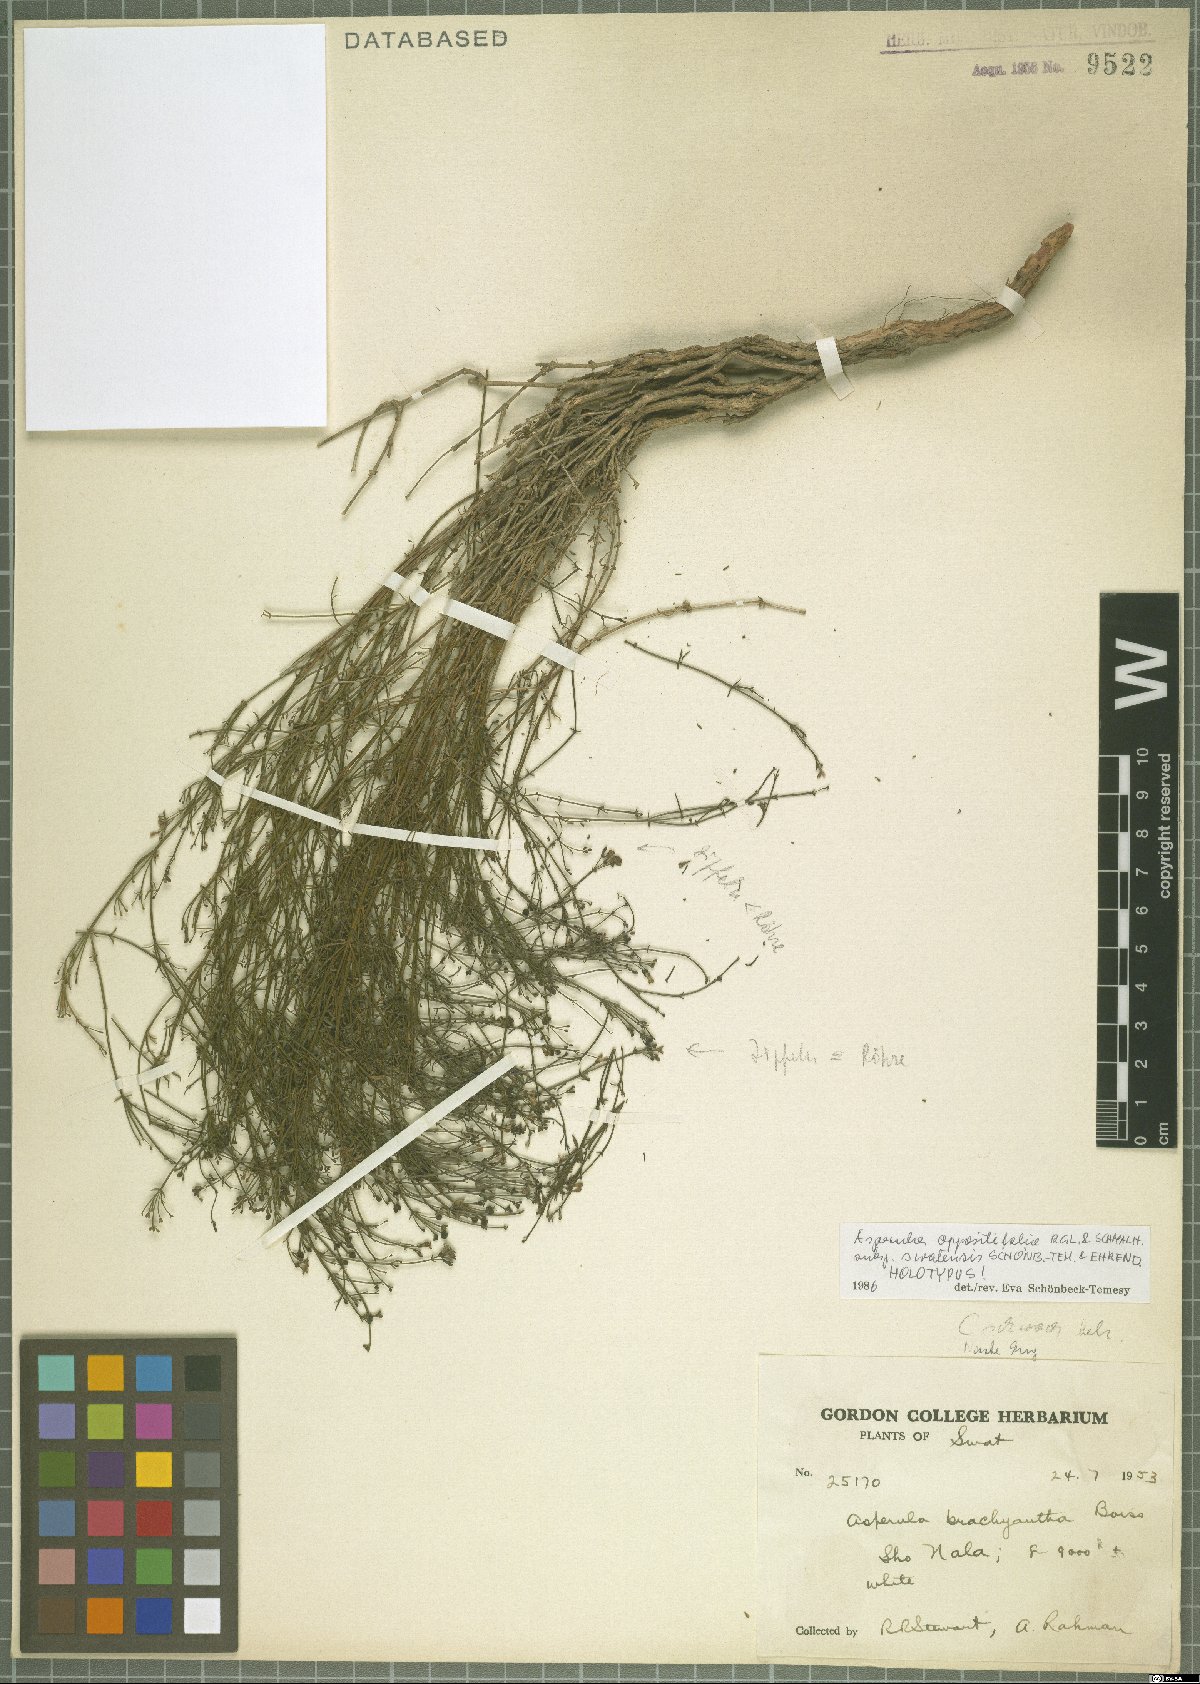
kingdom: Plantae
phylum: Tracheophyta
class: Magnoliopsida
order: Gentianales
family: Rubiaceae
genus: Asperula
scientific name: Asperula oppositifolia
